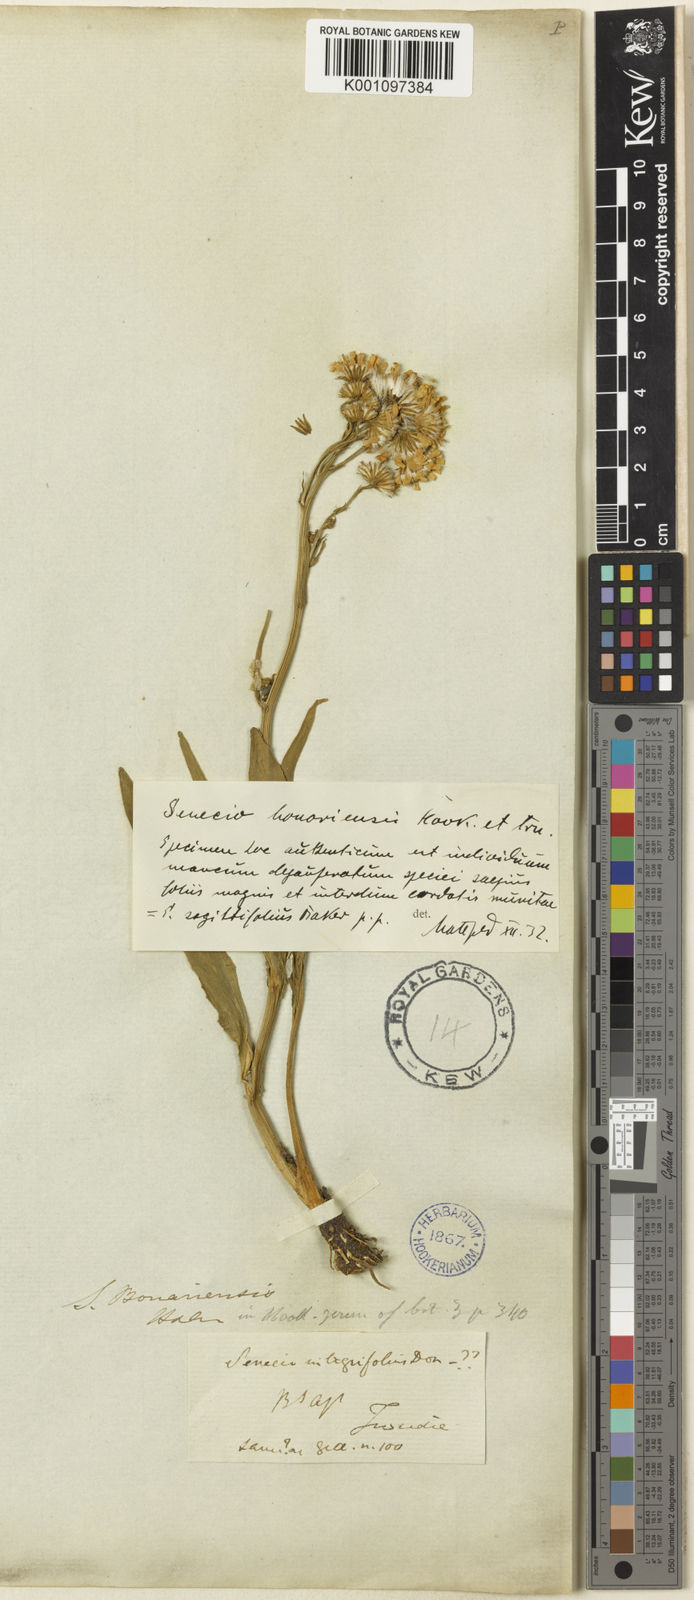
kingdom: Plantae
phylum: Tracheophyta
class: Magnoliopsida
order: Asterales
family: Asteraceae
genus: Senecio
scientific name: Senecio bonariensis
